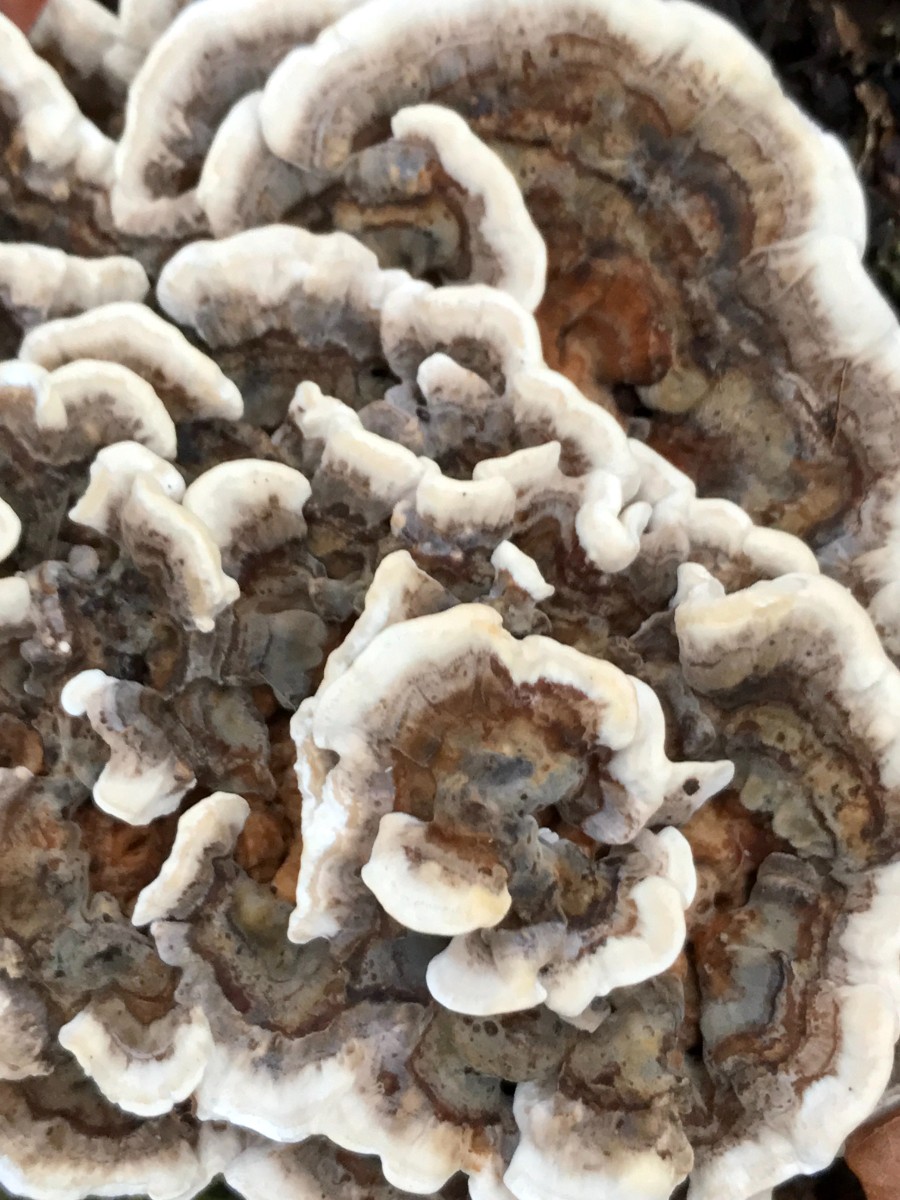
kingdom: Fungi
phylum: Basidiomycota
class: Agaricomycetes
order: Polyporales
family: Polyporaceae
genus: Trametes
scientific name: Trametes versicolor
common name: broget læderporesvamp
